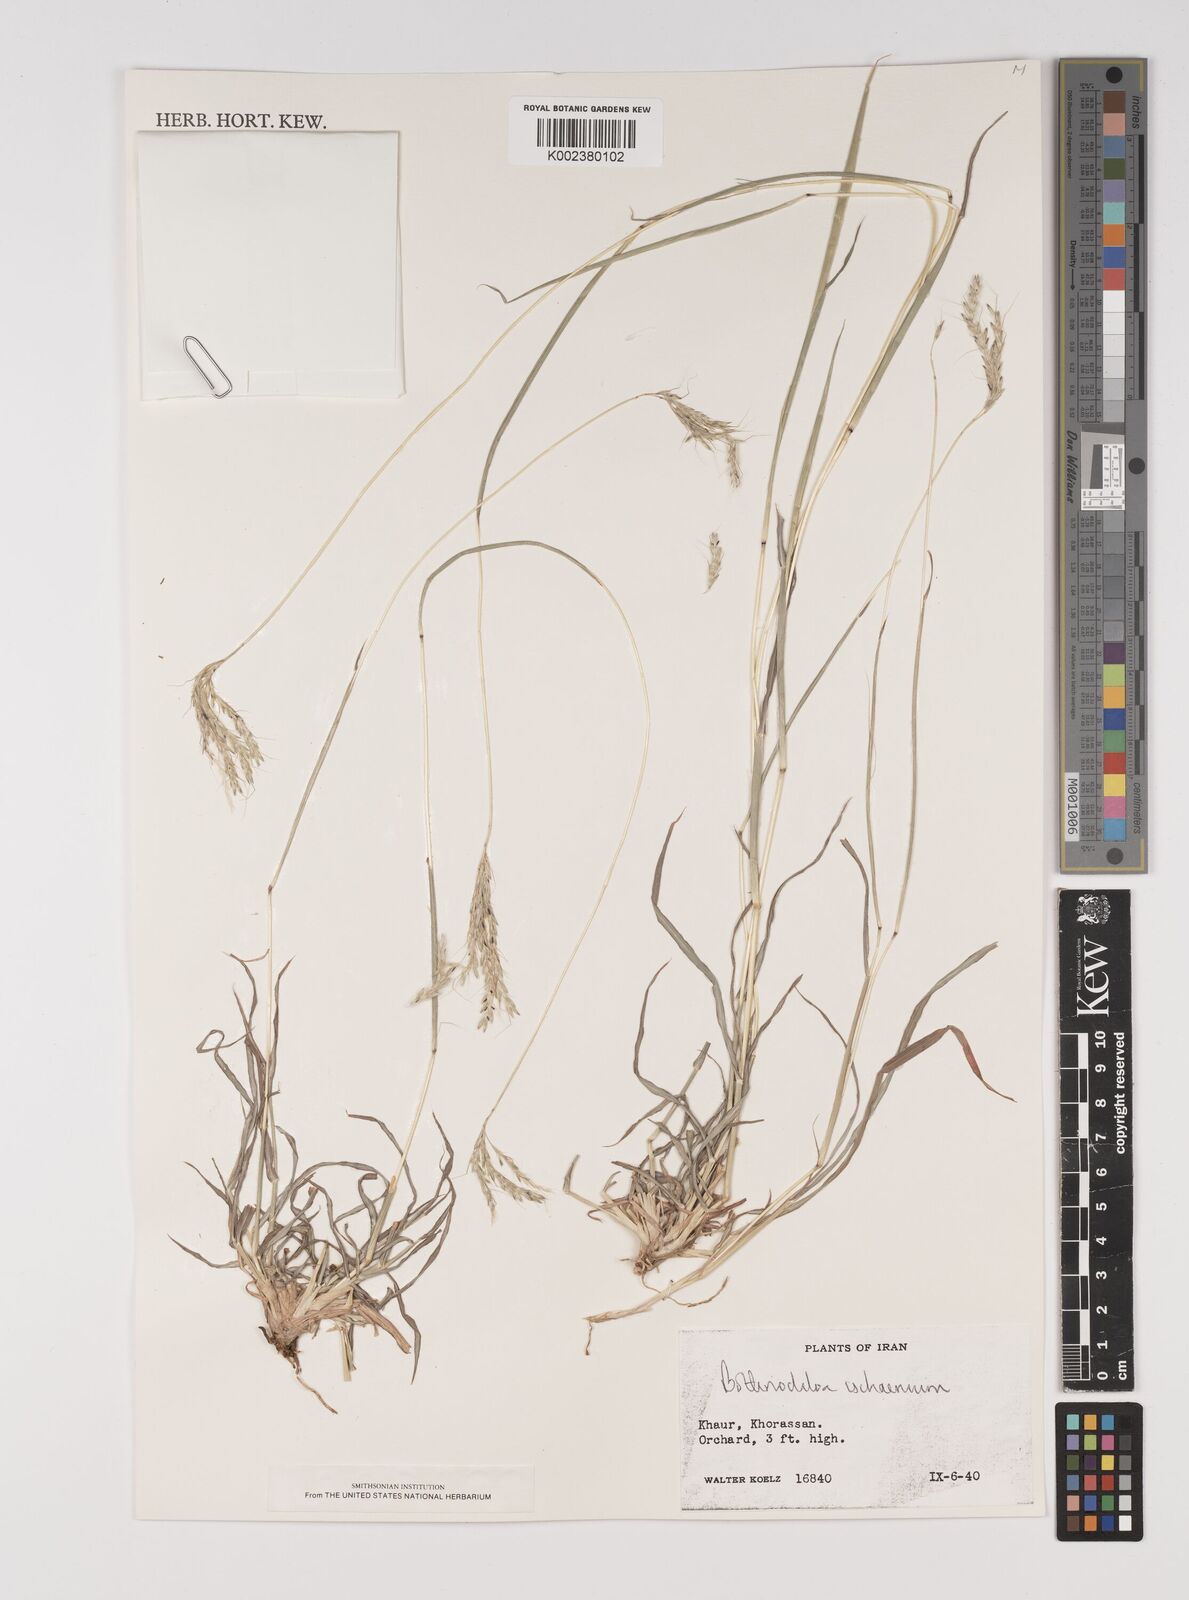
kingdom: Plantae
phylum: Tracheophyta
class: Liliopsida
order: Poales
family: Poaceae
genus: Bothriochloa
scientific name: Bothriochloa ischaemum
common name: Yellow bluestem
